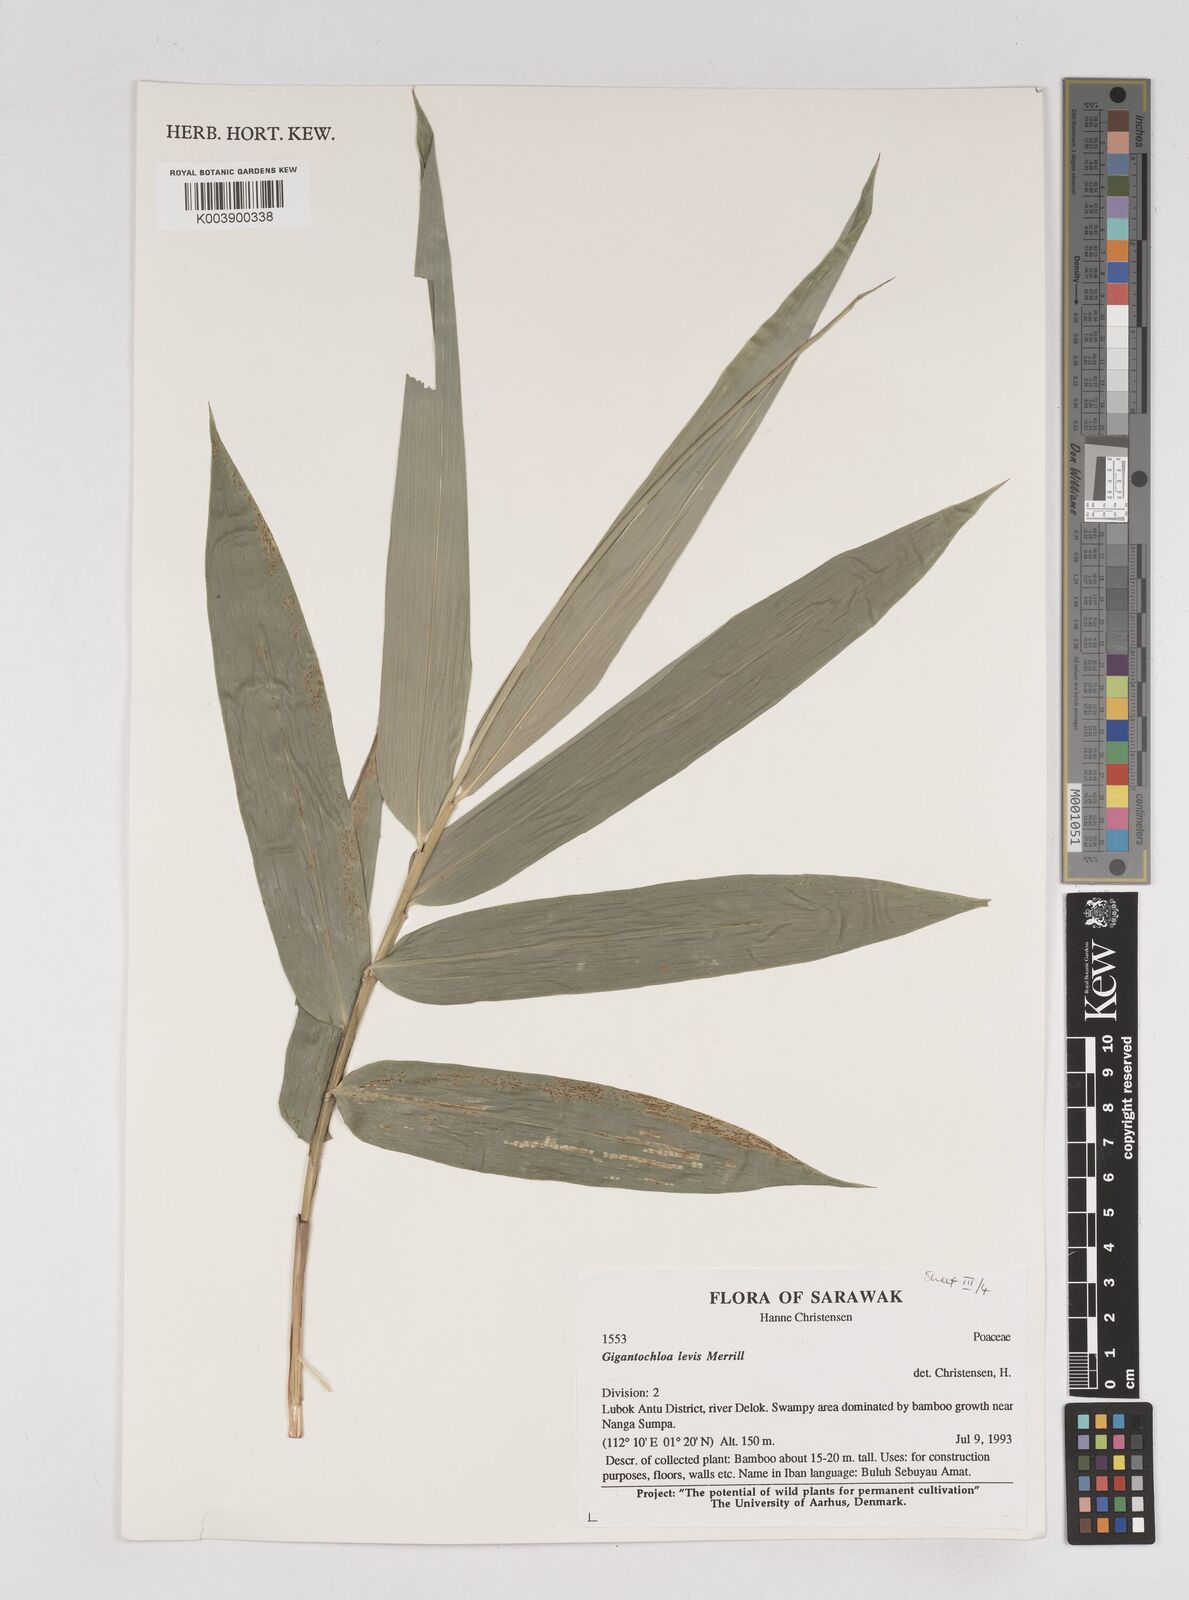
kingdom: Plantae
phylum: Tracheophyta
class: Liliopsida
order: Poales
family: Poaceae
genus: Gigantochloa
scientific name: Gigantochloa levis
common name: Smooth-shoot gigantochloa
